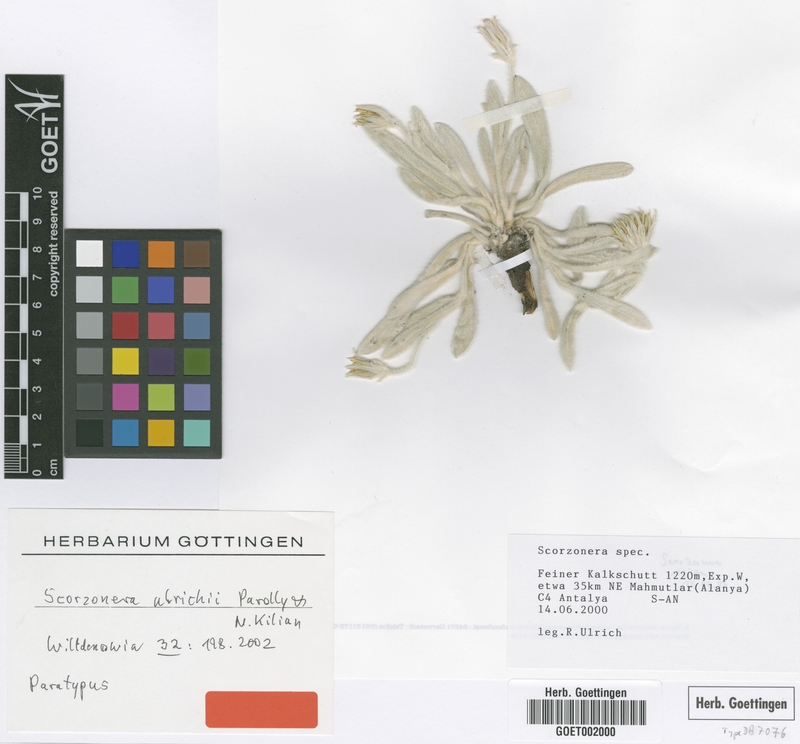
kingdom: Plantae
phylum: Tracheophyta
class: Magnoliopsida
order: Asterales
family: Asteraceae
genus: Bilgea
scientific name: Bilgea ulrichii
